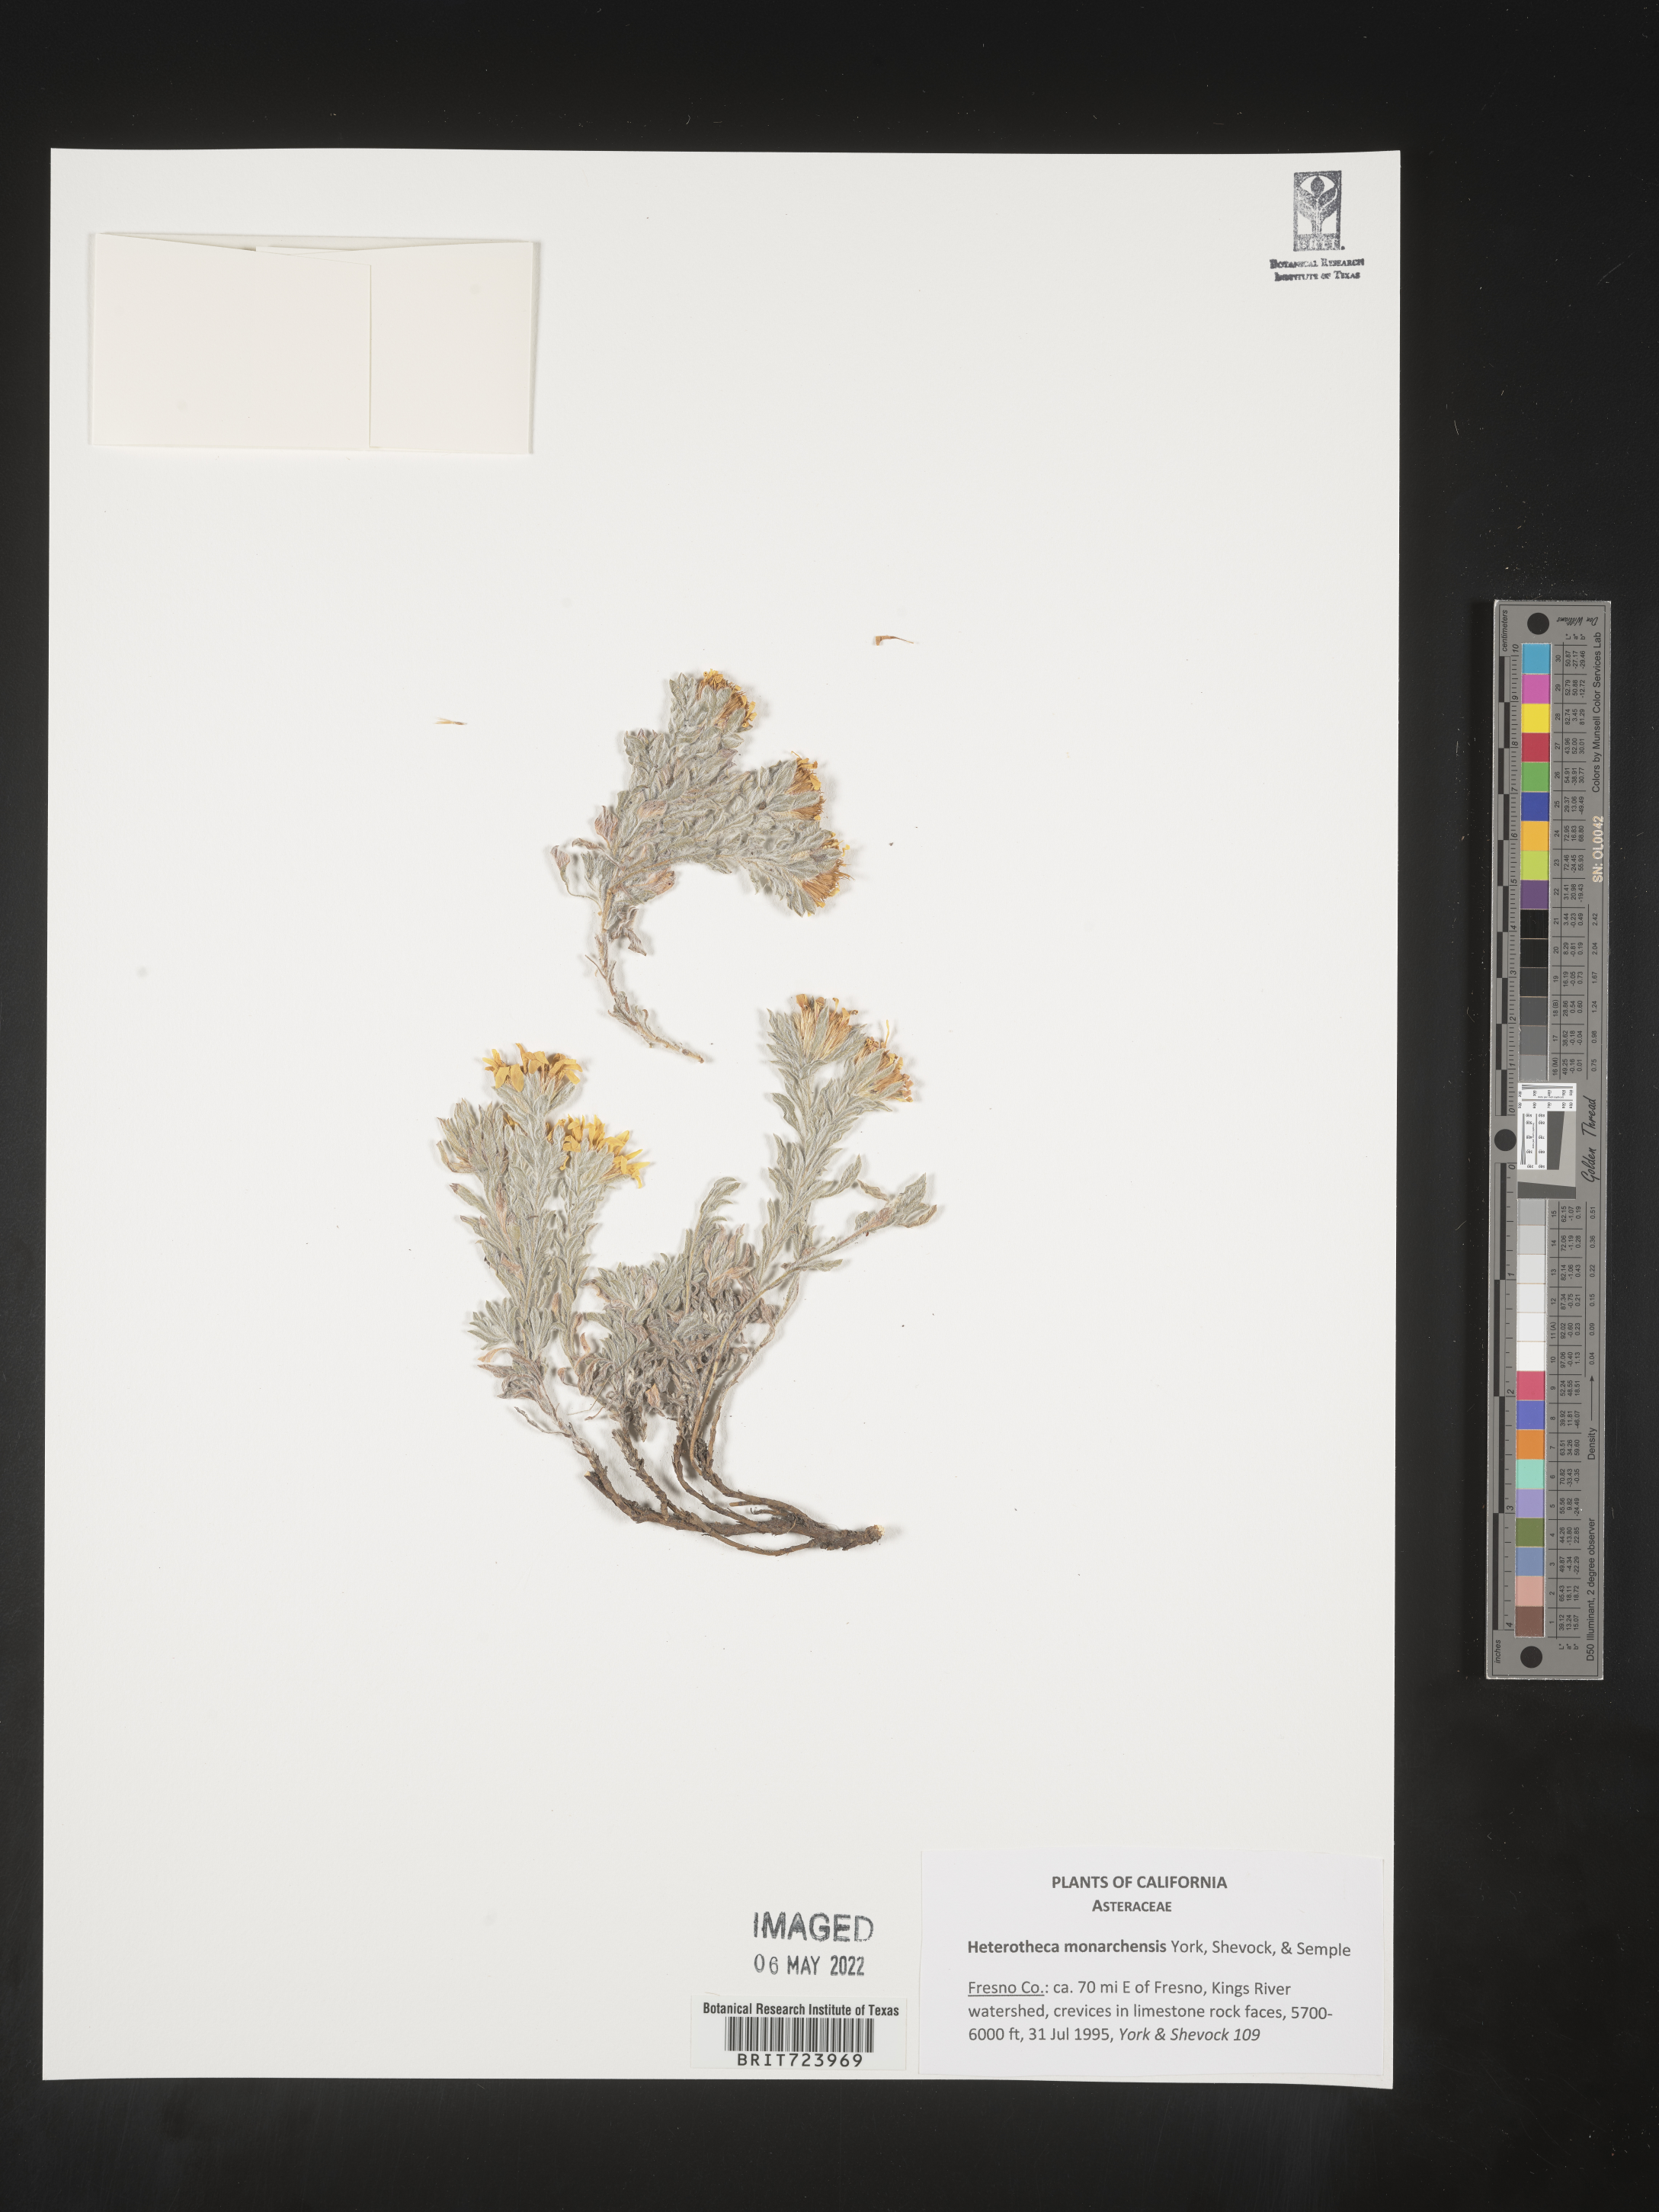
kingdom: Plantae
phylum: Tracheophyta
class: Magnoliopsida
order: Asterales
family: Asteraceae
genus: Heterotheca
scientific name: Heterotheca monarchensis
